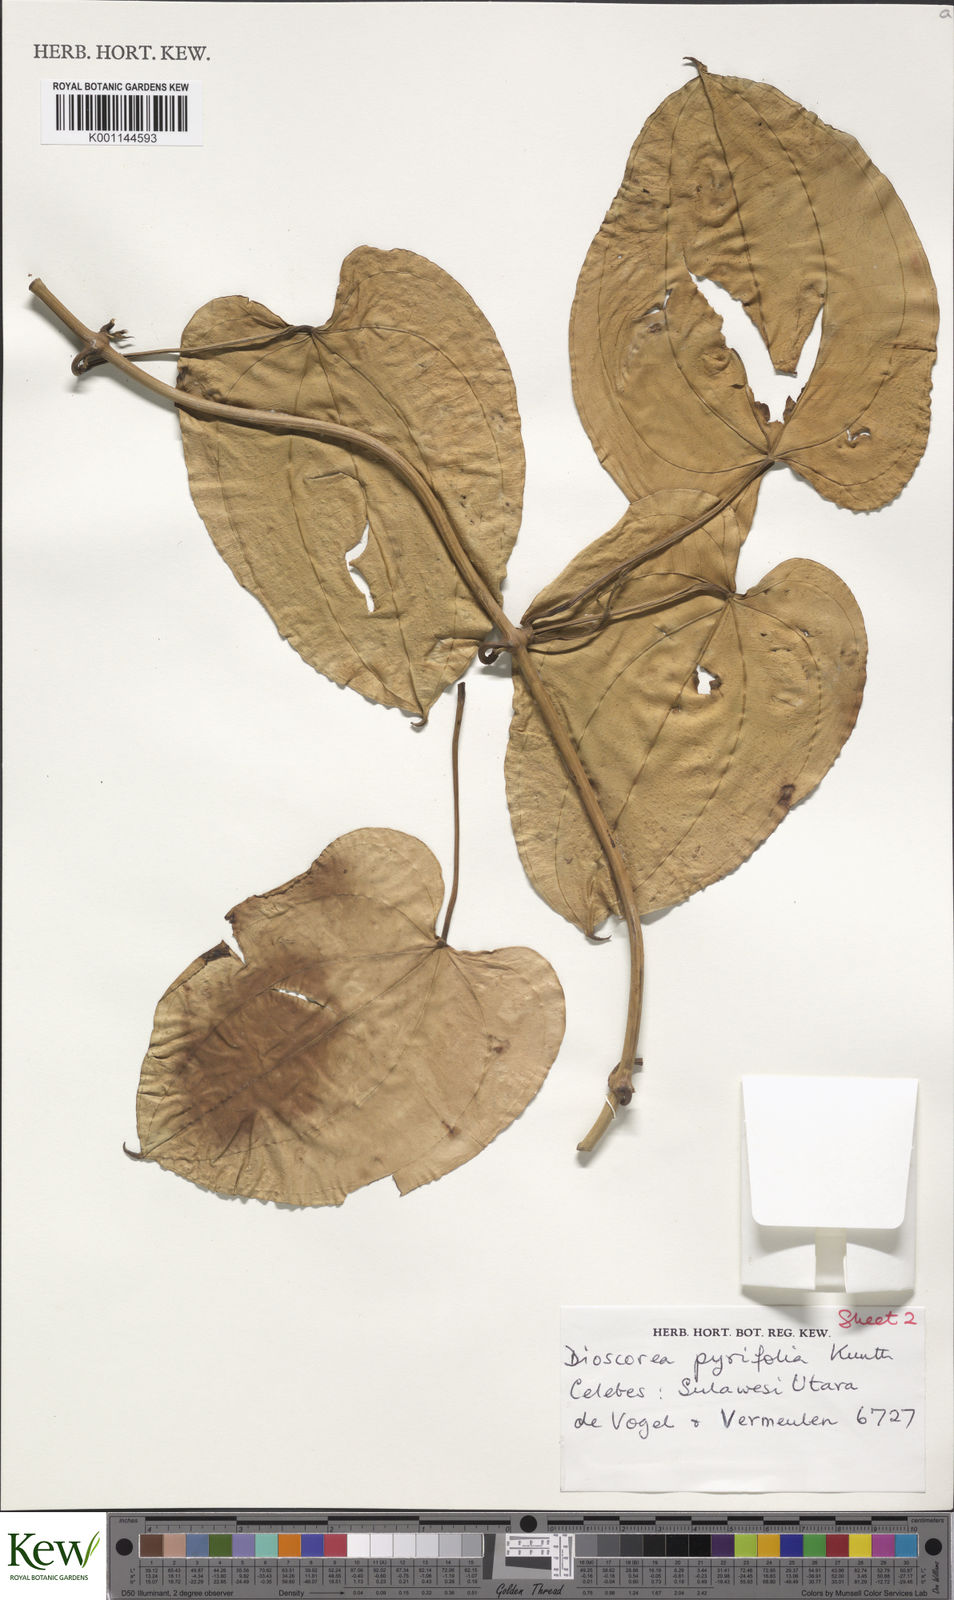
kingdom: Plantae
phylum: Tracheophyta
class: Liliopsida
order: Dioscoreales
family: Dioscoreaceae
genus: Dioscorea
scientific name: Dioscorea pyrifolia
